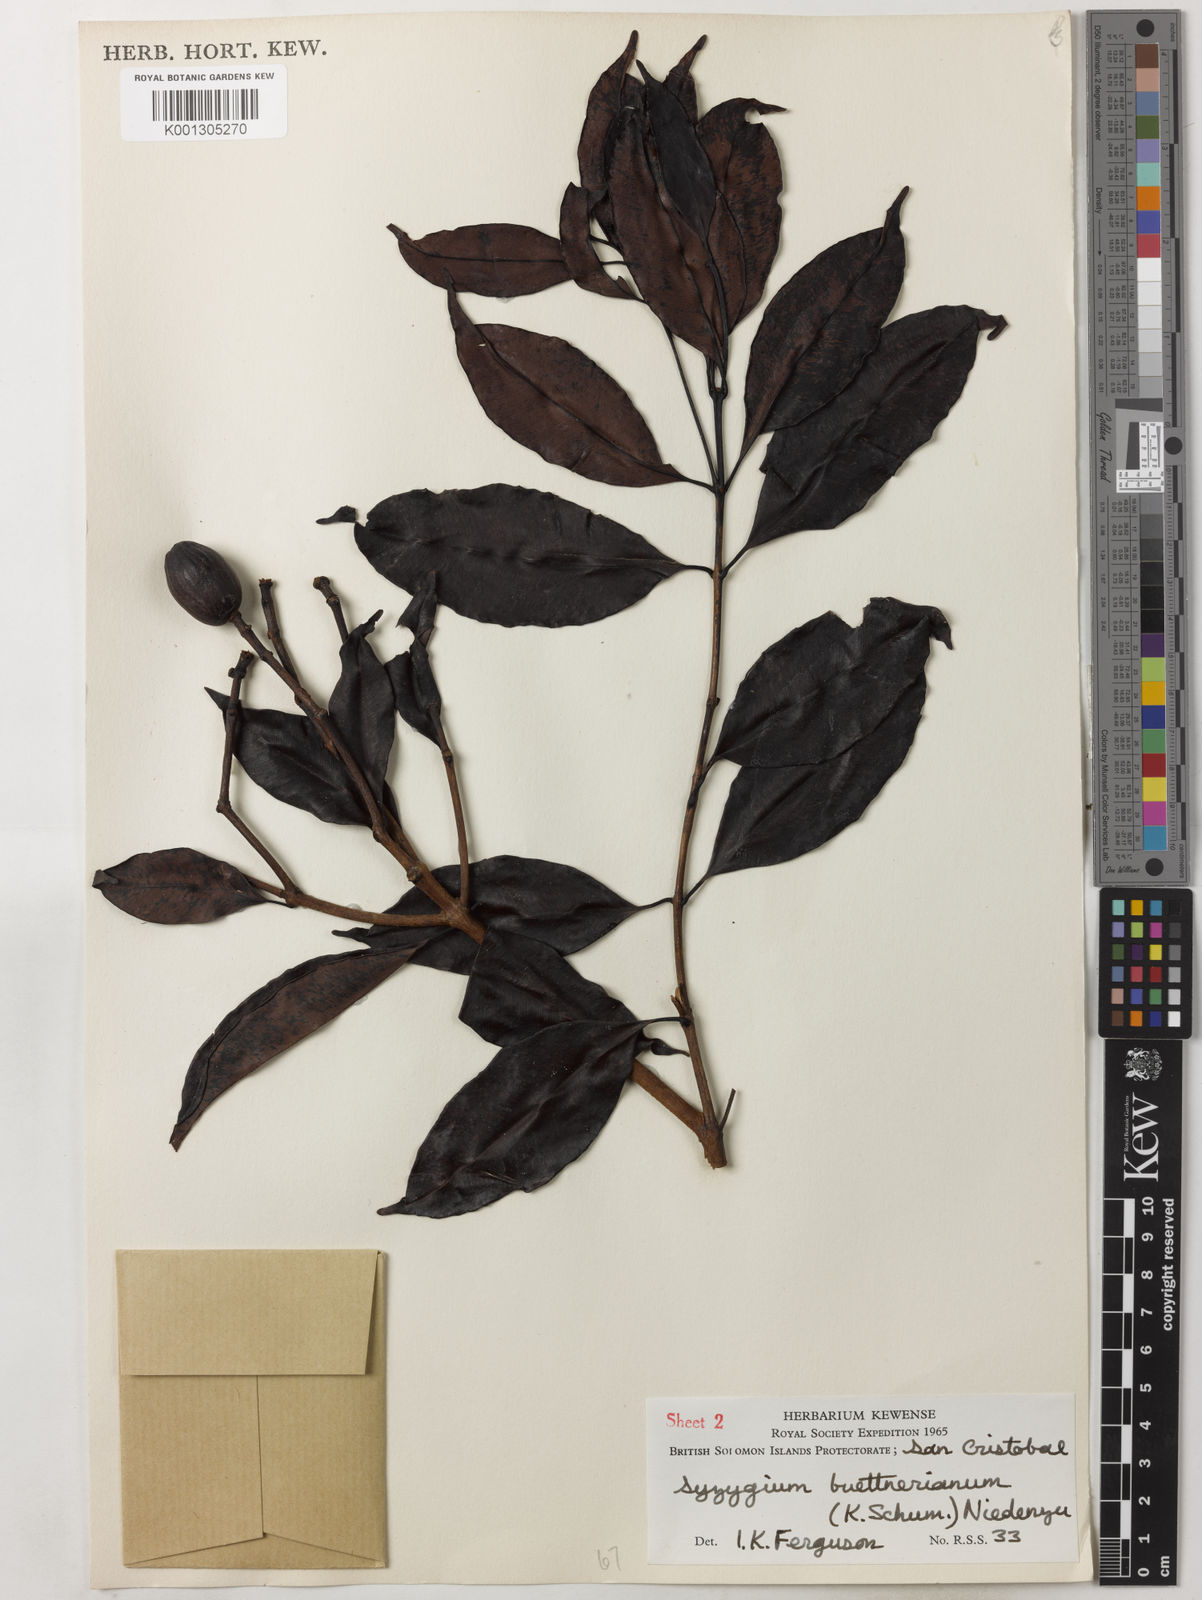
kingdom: Plantae
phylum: Tracheophyta
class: Magnoliopsida
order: Myrtales
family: Myrtaceae
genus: Syzygium
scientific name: Syzygium buettnerianum
